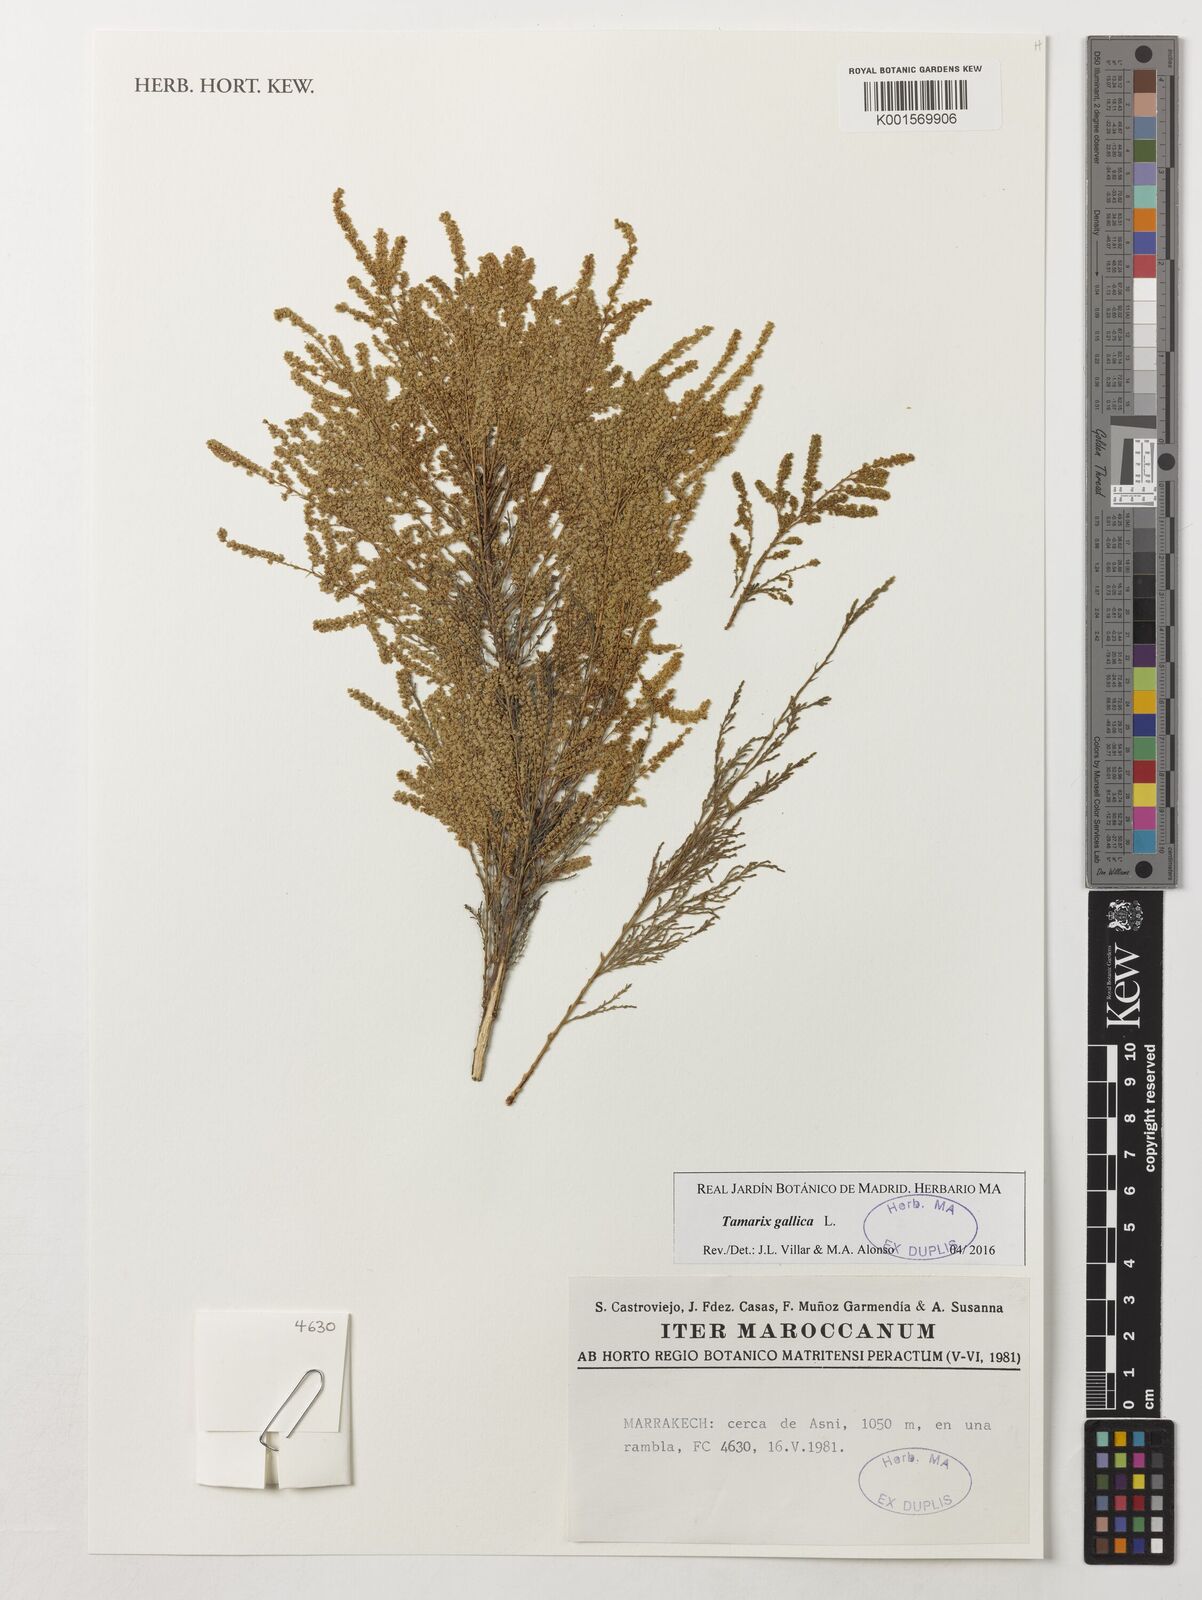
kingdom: Plantae
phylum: Tracheophyta
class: Magnoliopsida
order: Caryophyllales
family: Tamaricaceae
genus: Tamarix
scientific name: Tamarix gallica
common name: Tamarisk
